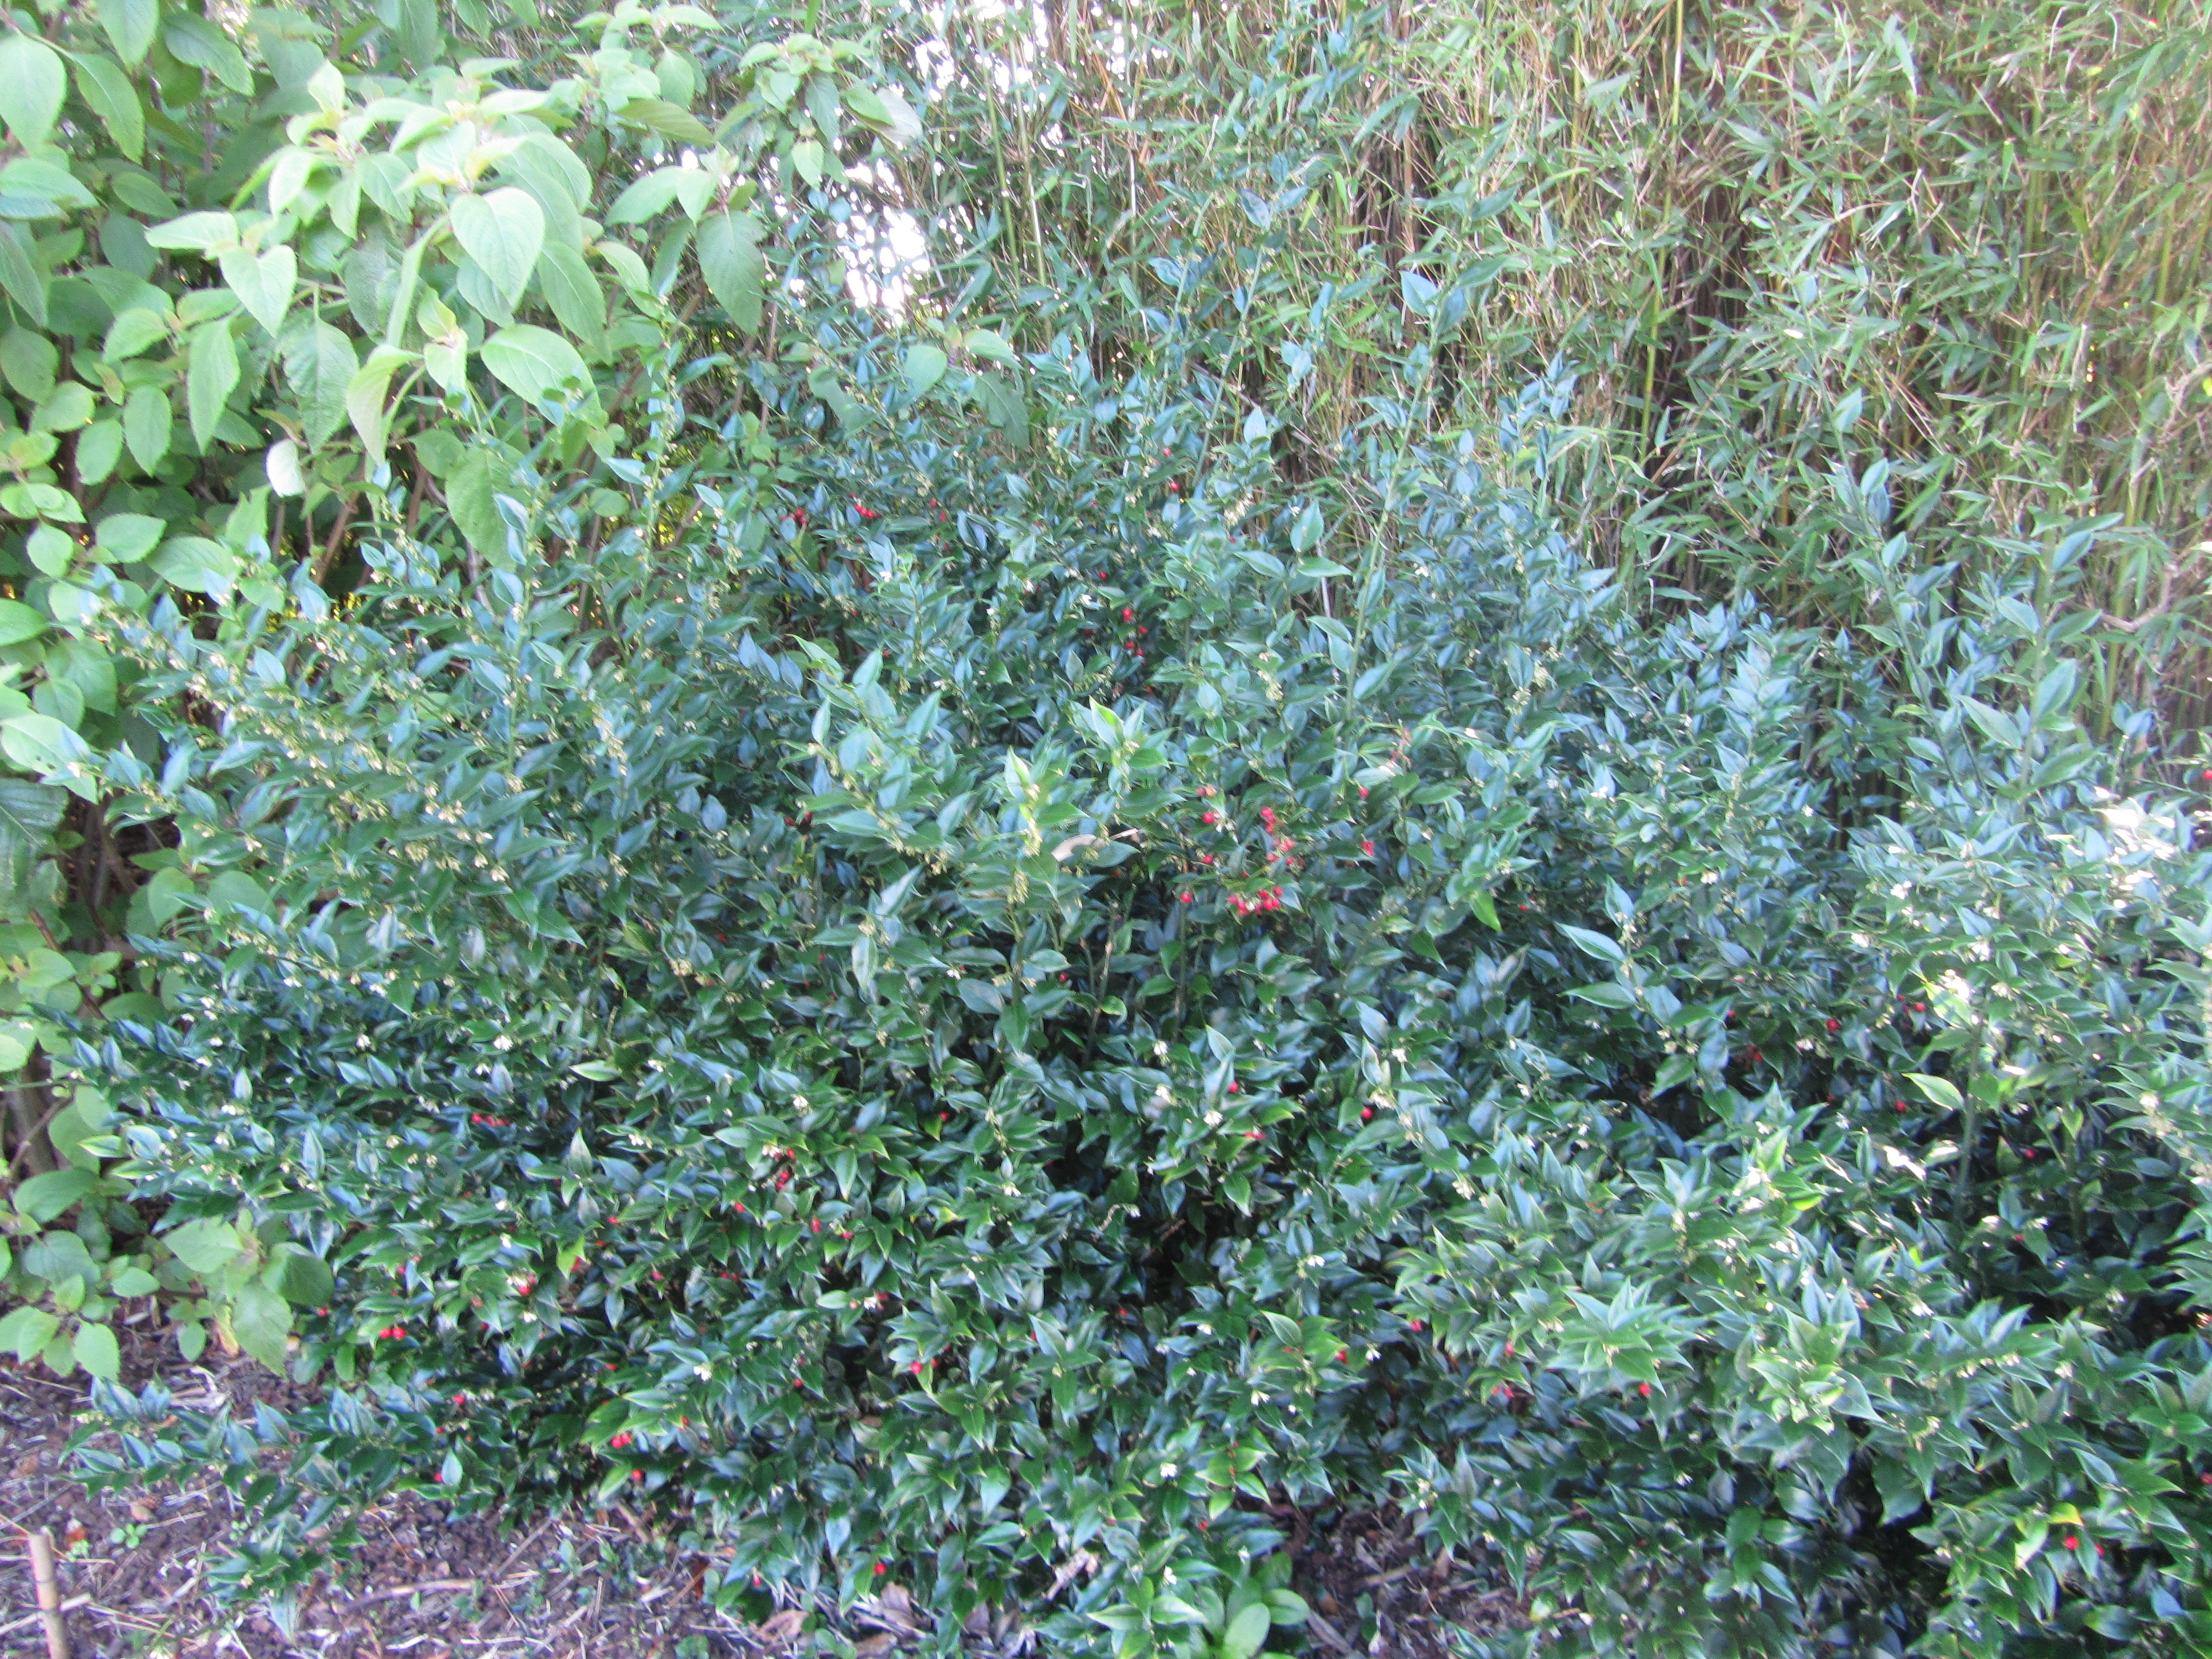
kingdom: Plantae
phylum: Tracheophyta
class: Magnoliopsida
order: Buxales
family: Buxaceae
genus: Sarcococca
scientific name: Sarcococca ruscifolia
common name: Fragrant sweet-box
